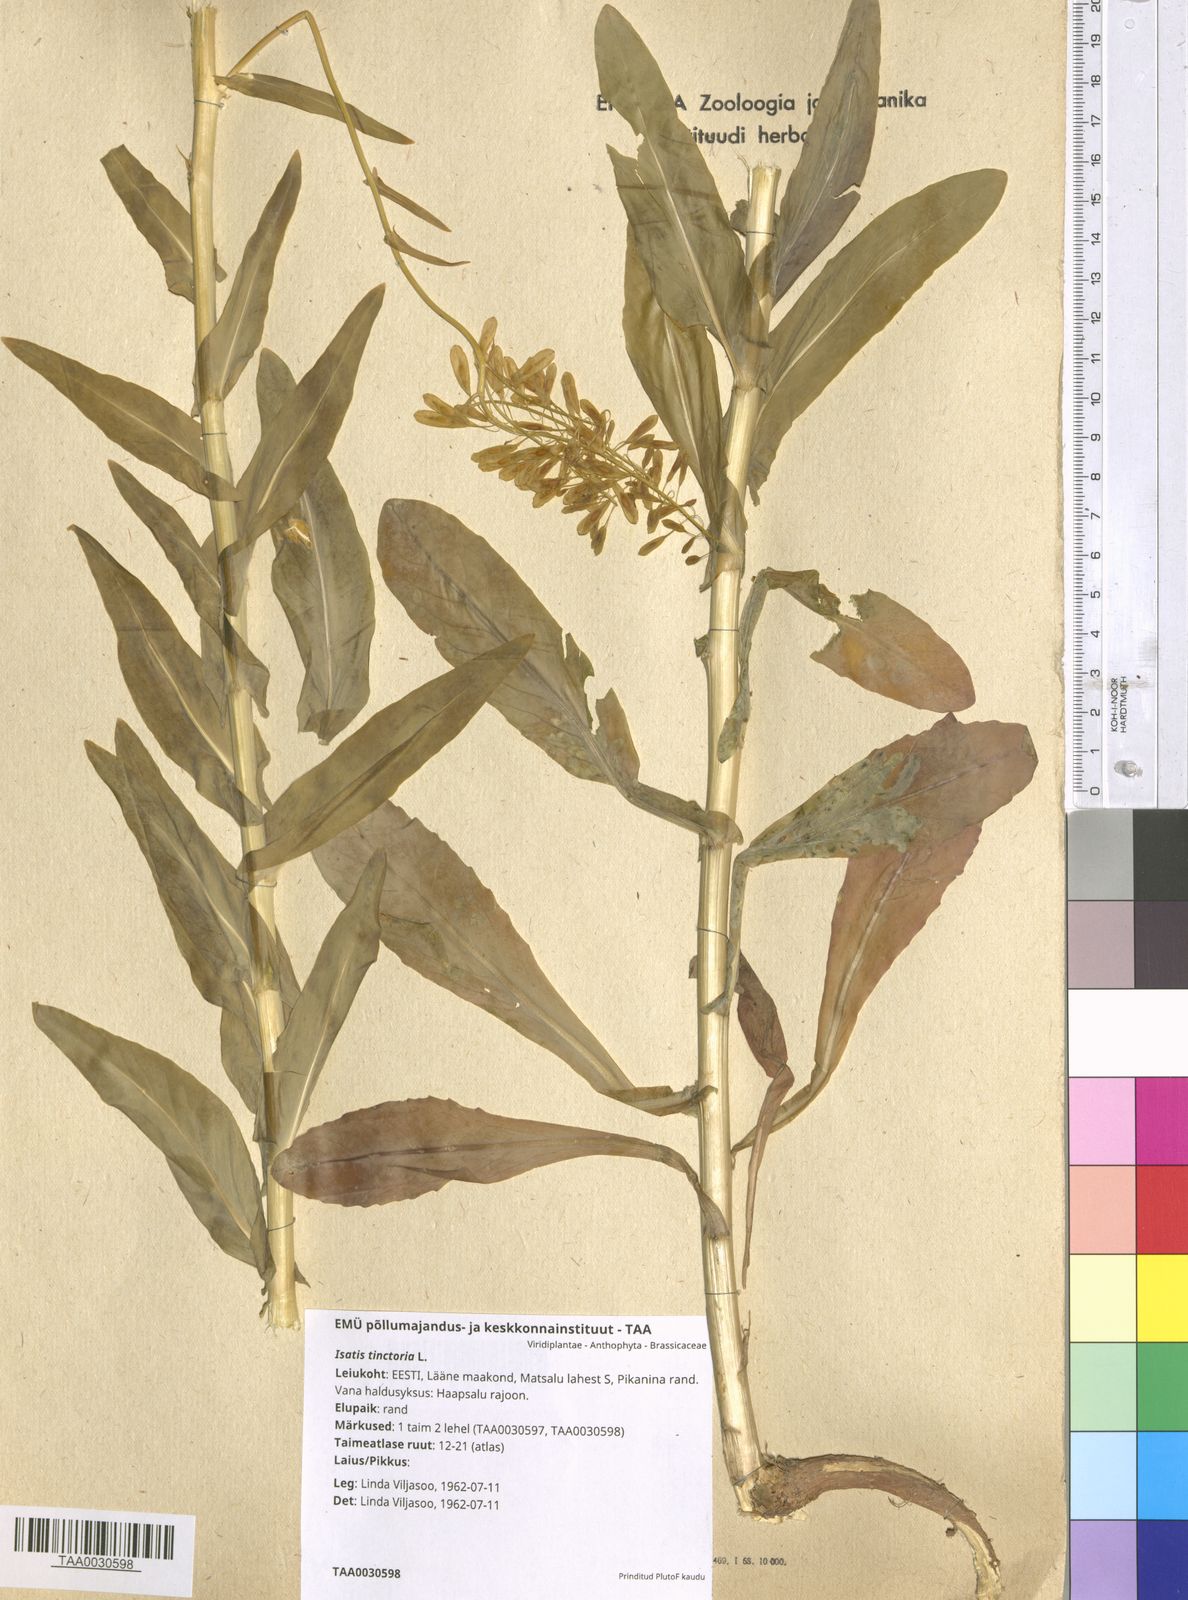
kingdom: Plantae
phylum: Tracheophyta
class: Magnoliopsida
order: Brassicales
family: Brassicaceae
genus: Isatis
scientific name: Isatis tinctoria
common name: Woad
